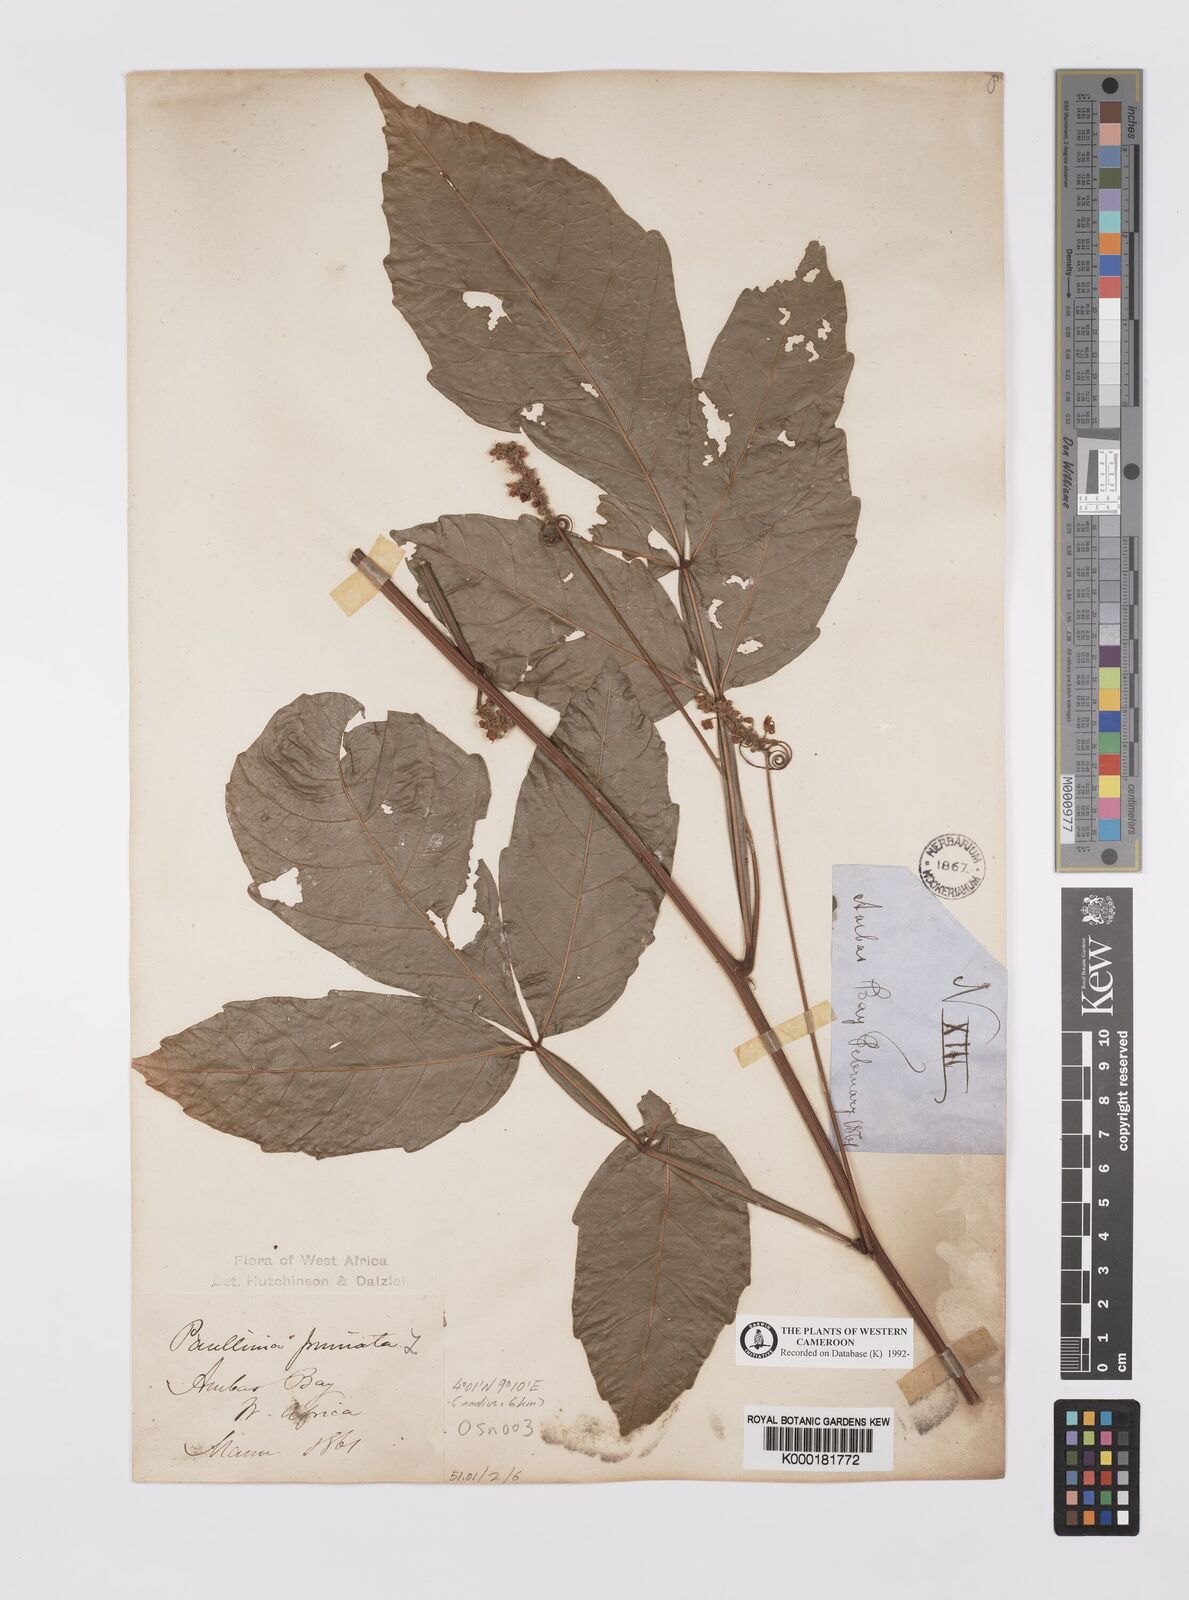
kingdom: Plantae
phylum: Tracheophyta
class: Magnoliopsida
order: Sapindales
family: Sapindaceae
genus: Paullinia
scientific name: Paullinia
